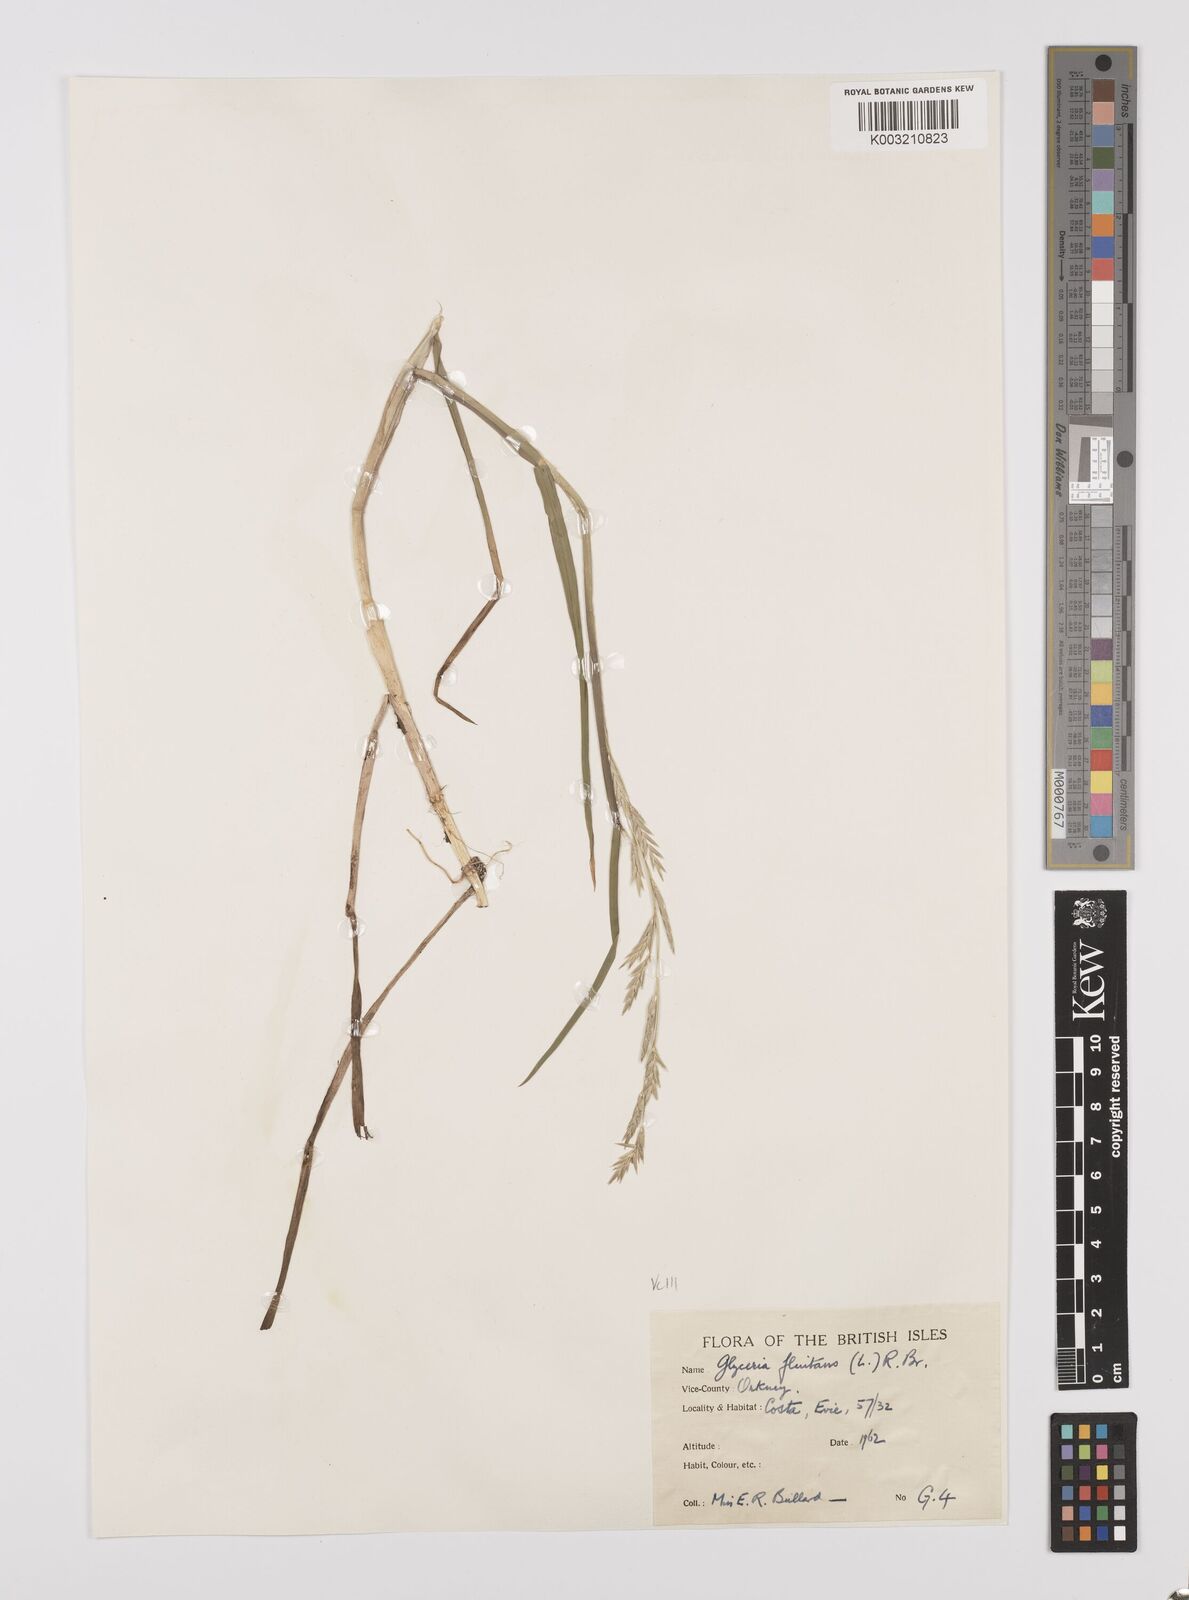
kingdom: Plantae
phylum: Tracheophyta
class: Liliopsida
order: Poales
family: Poaceae
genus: Glyceria
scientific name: Glyceria fluitans
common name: Floating sweet-grass
